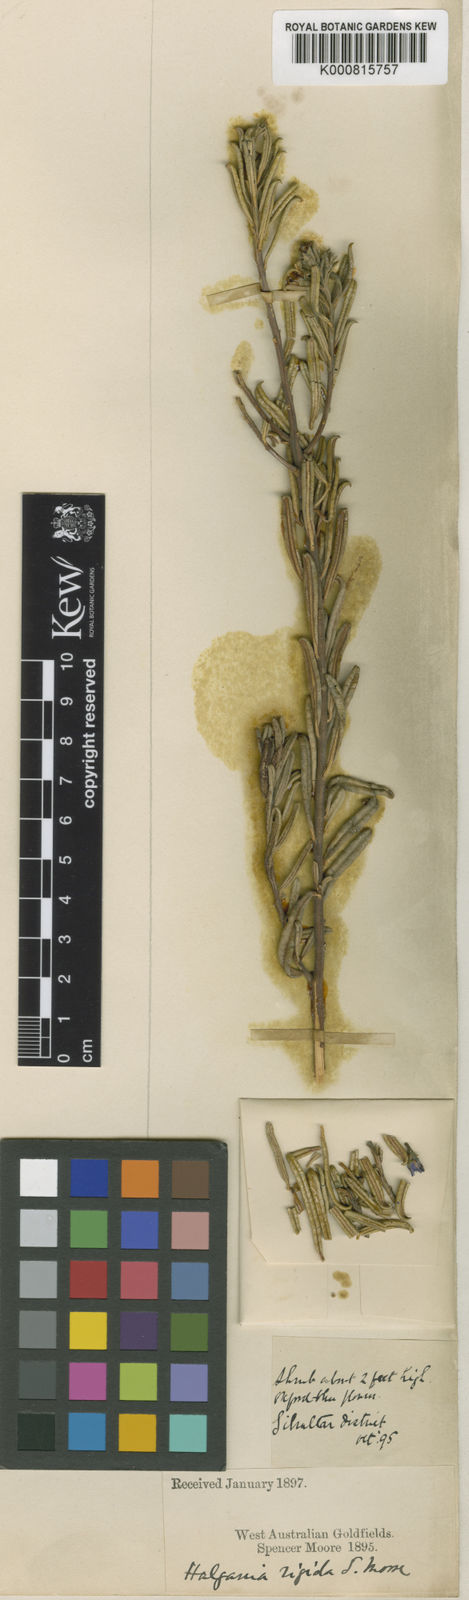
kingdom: Plantae
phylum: Tracheophyta
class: Magnoliopsida
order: Boraginales
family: Ehretiaceae
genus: Halgania
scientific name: Halgania andromedifolia
